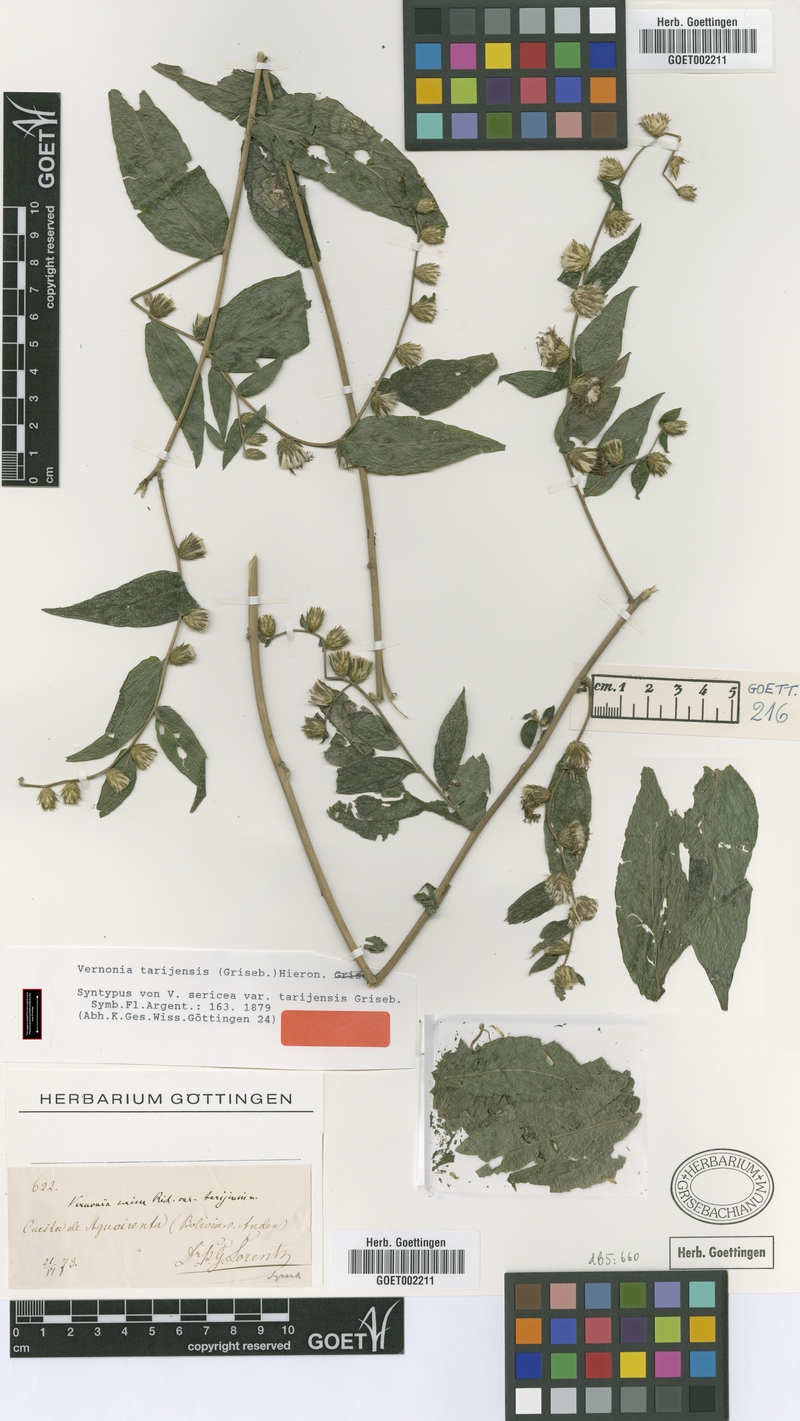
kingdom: Plantae
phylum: Tracheophyta
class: Magnoliopsida
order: Asterales
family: Asteraceae
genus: Lepidaploa
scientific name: Lepidaploa tarijensis
